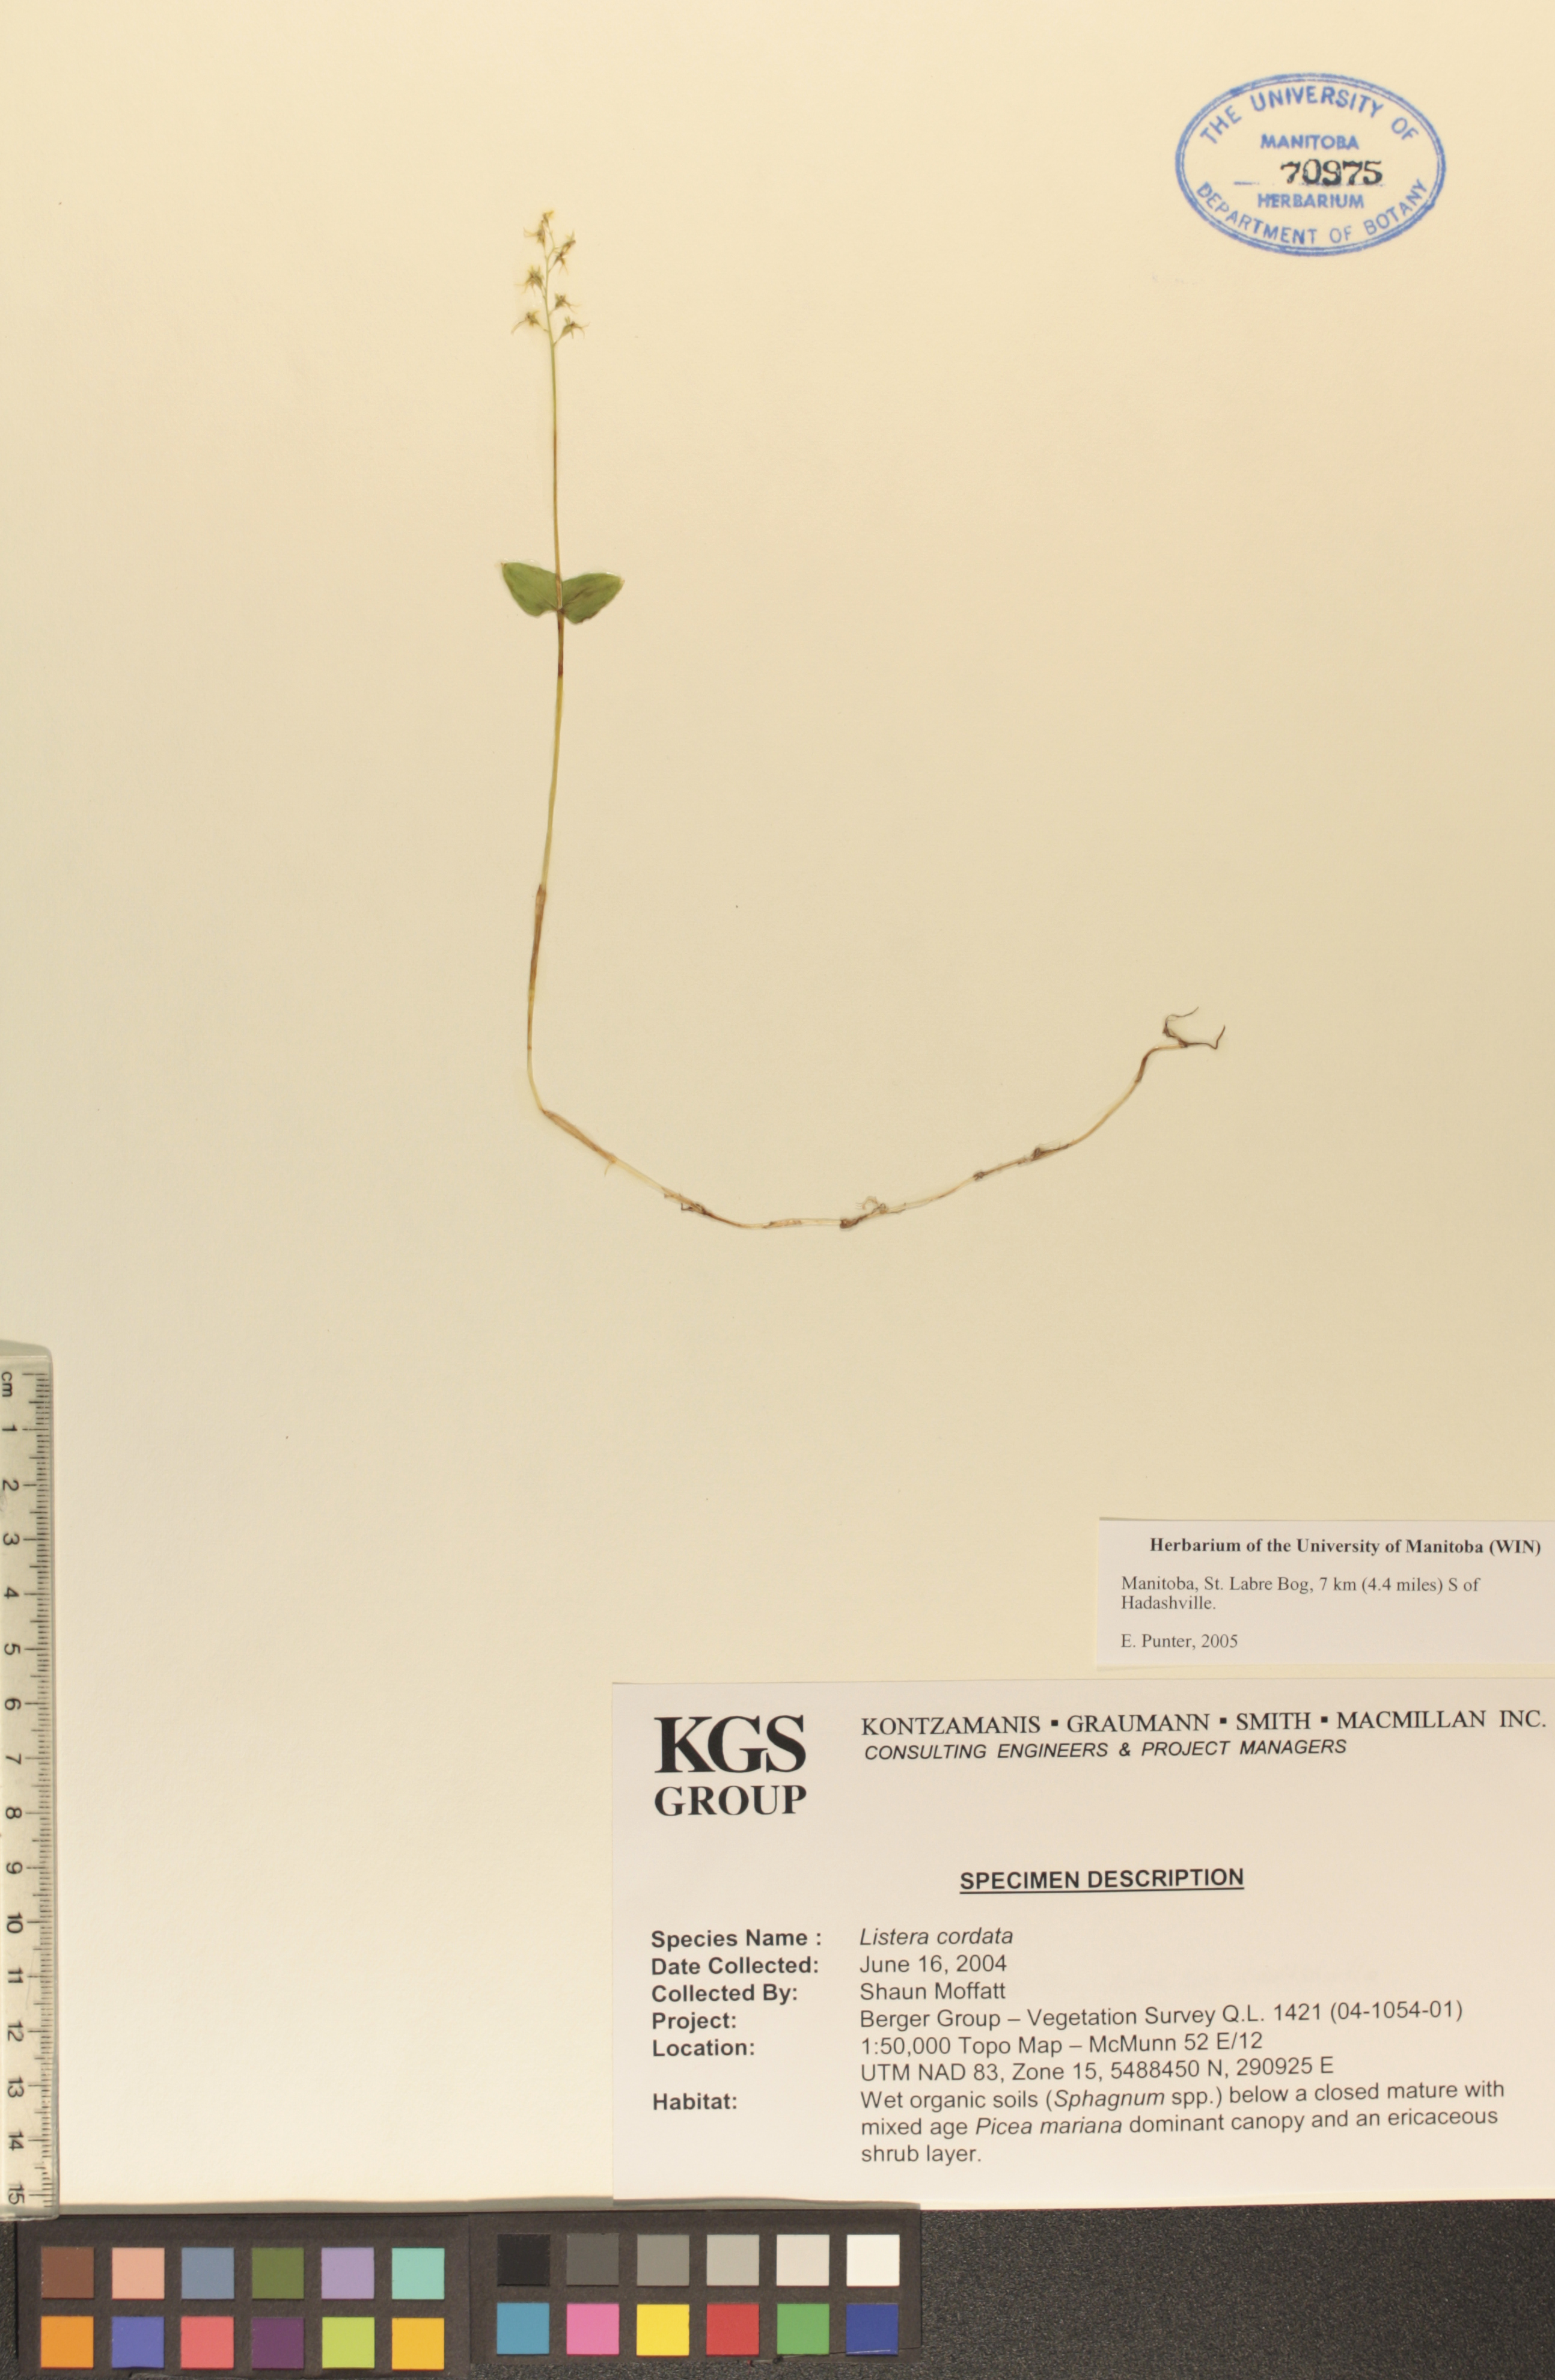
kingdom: Plantae
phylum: Tracheophyta
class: Liliopsida
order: Asparagales
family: Orchidaceae
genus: Neottia
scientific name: Neottia cordata
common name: Lesser twayblade
